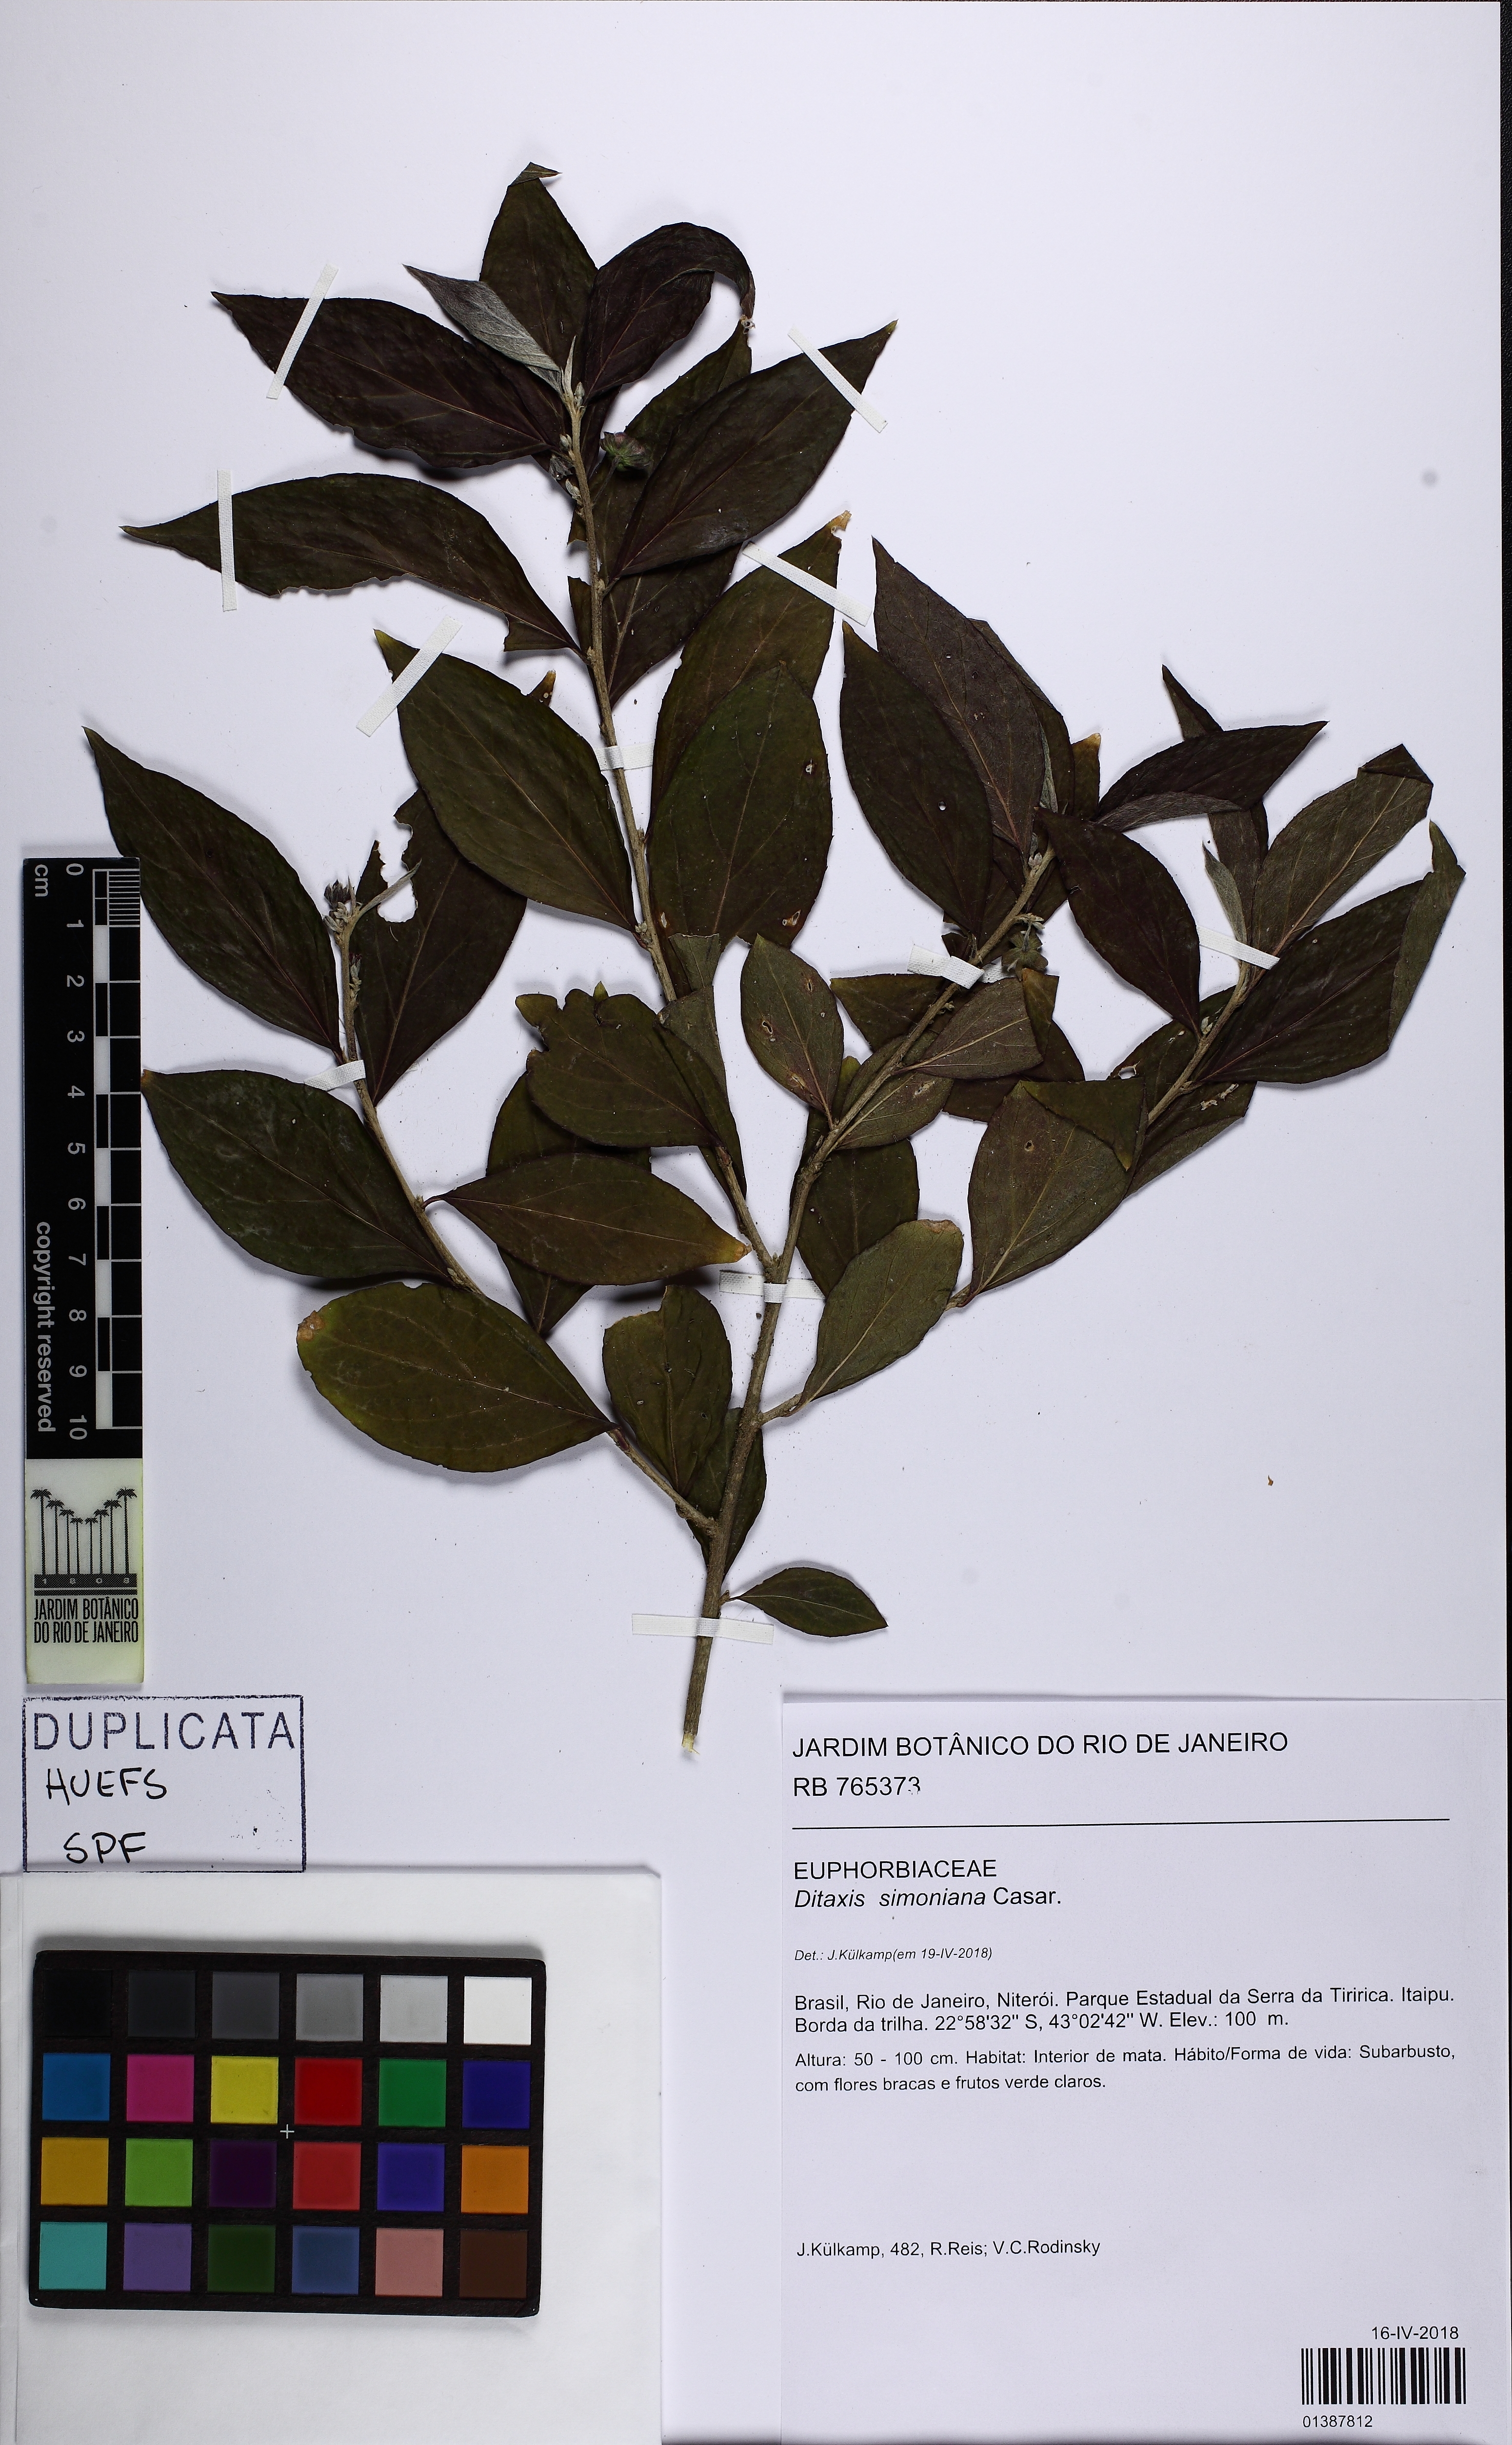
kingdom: Plantae
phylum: Tracheophyta
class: Magnoliopsida
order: Malpighiales
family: Euphorbiaceae
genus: Ditaxis
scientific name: Ditaxis simoniana
